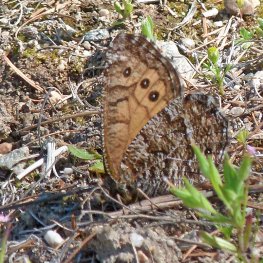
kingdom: Animalia
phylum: Arthropoda
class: Insecta
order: Lepidoptera
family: Nymphalidae
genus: Oeneis
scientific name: Oeneis chryxus
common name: Chryxus Arctic
